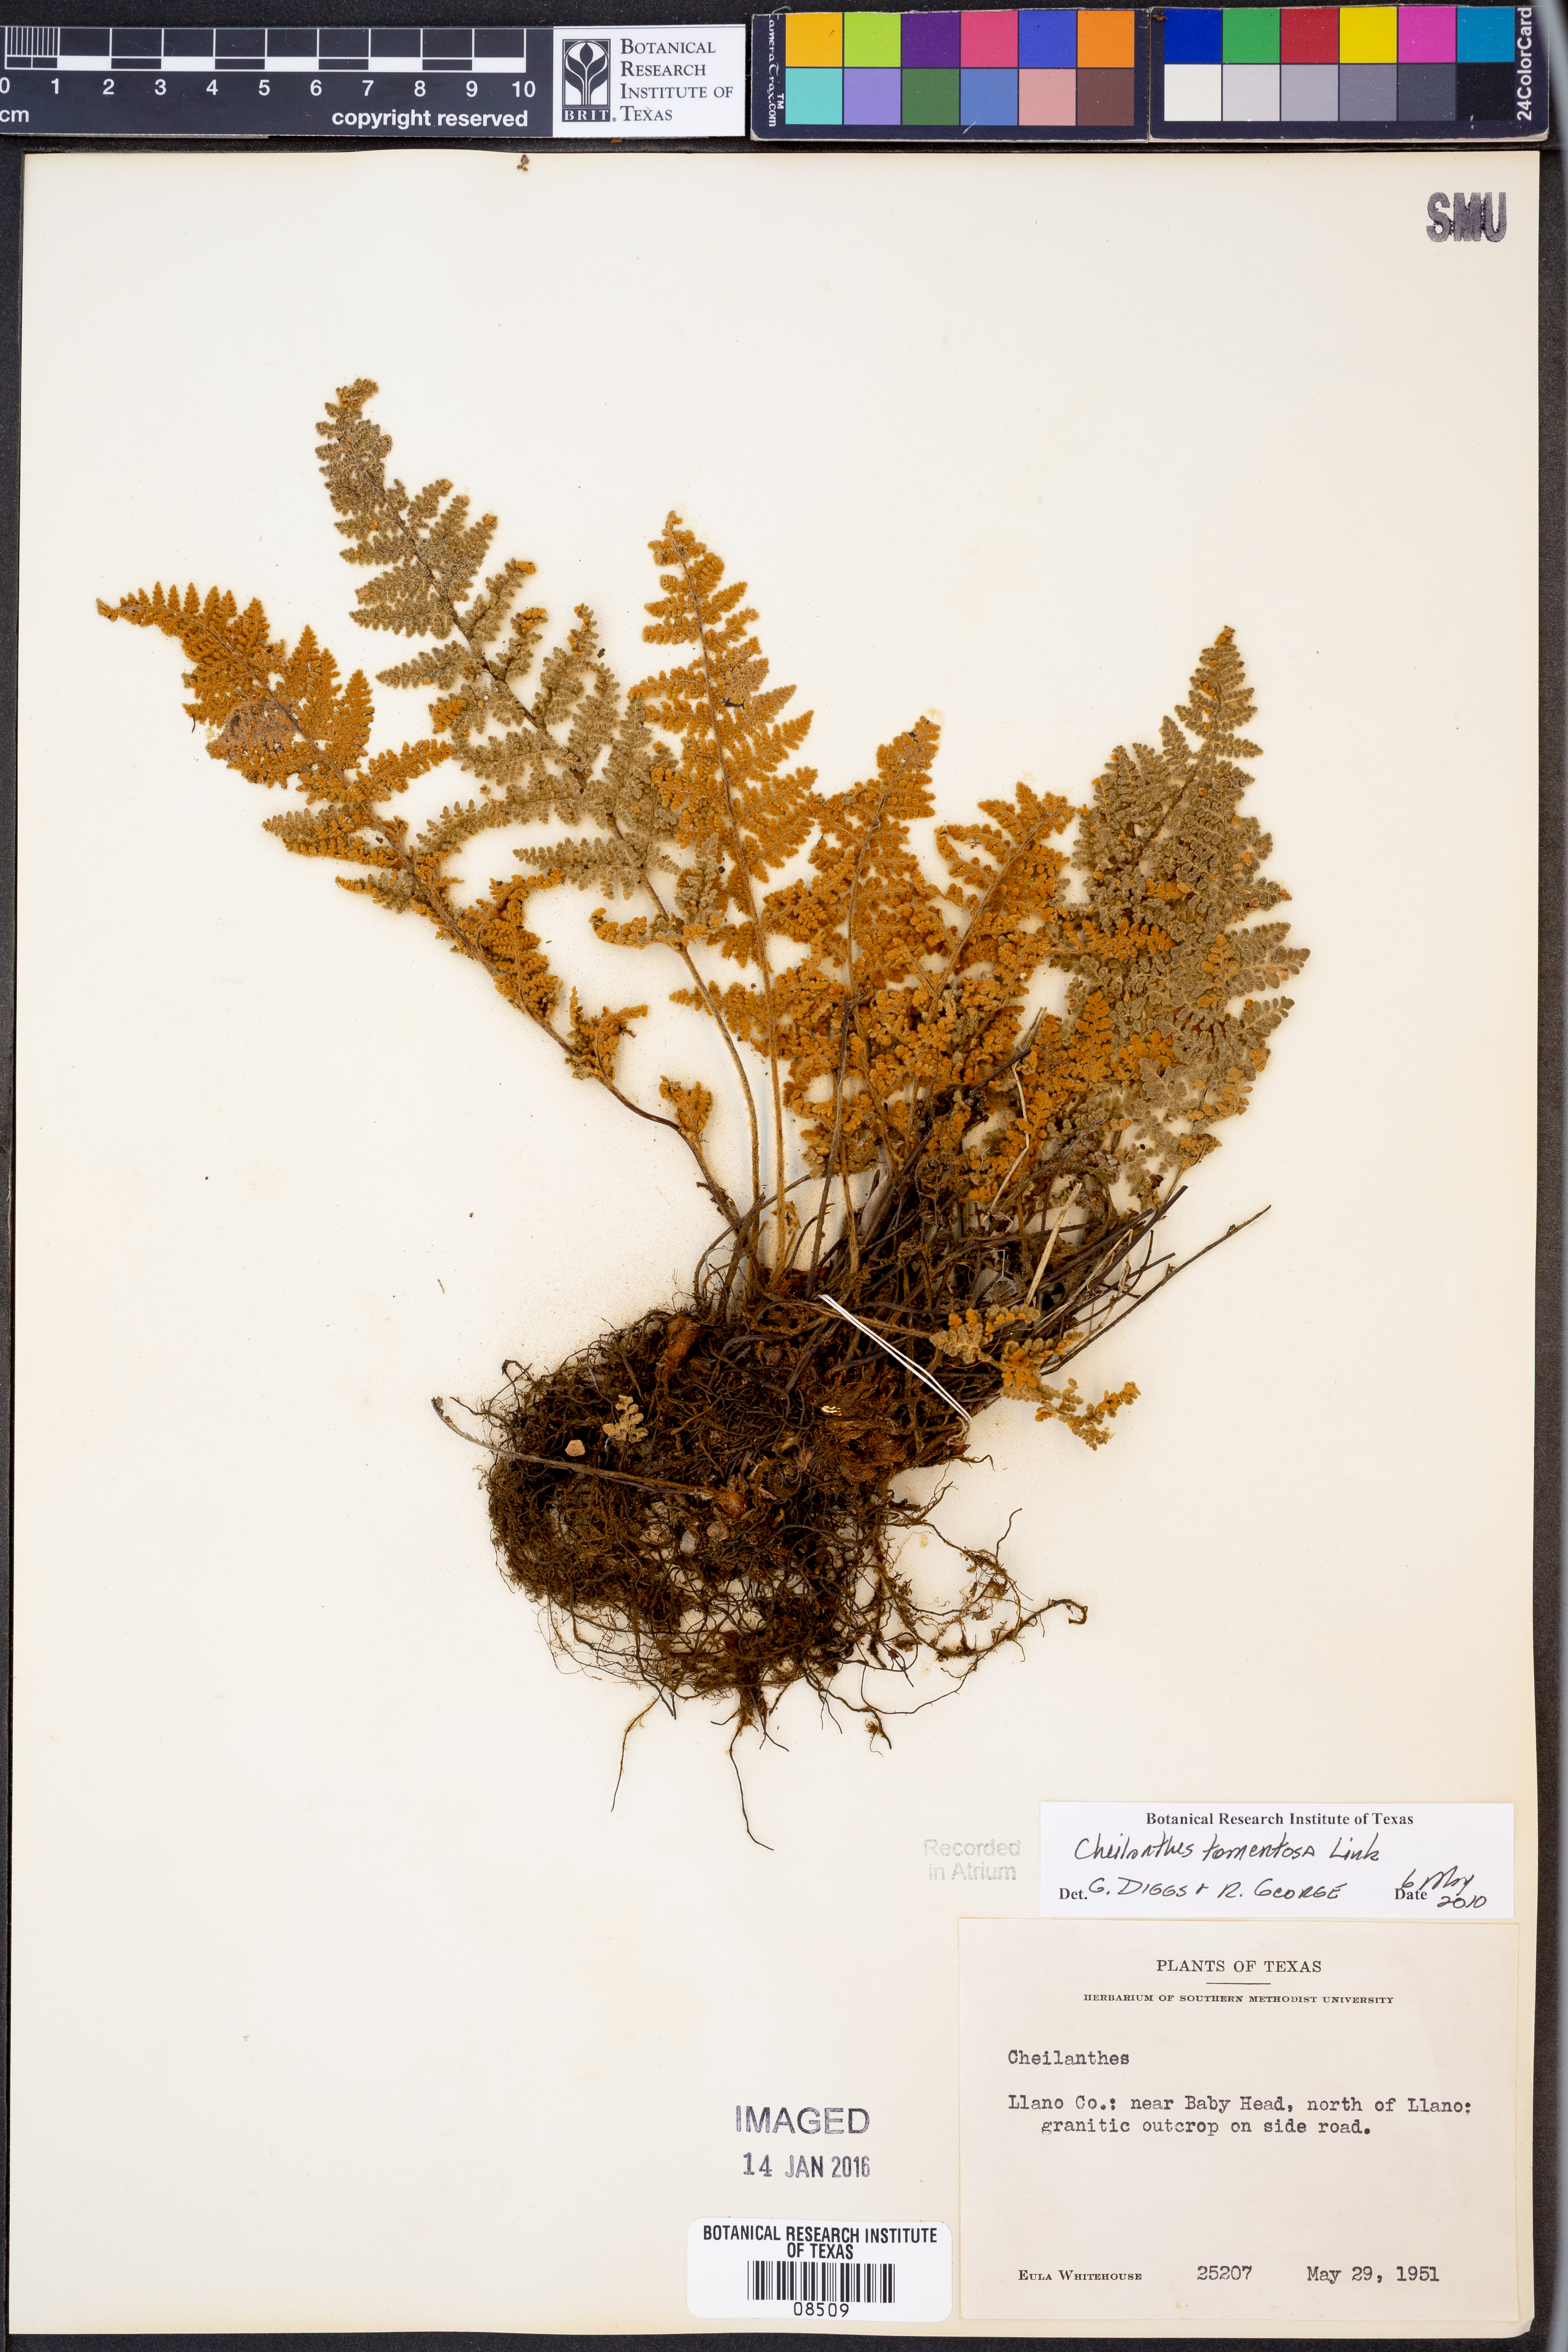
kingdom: Plantae
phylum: Tracheophyta
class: Polypodiopsida
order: Polypodiales
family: Pteridaceae
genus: Myriopteris
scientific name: Myriopteris tomentosa
